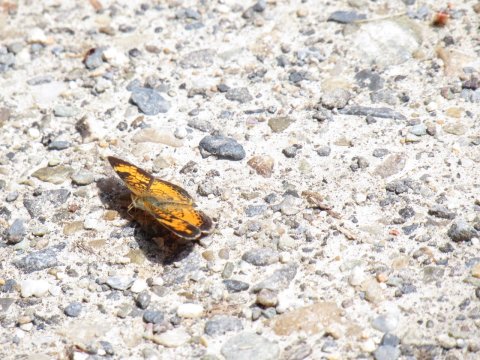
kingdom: Animalia
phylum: Arthropoda
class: Insecta
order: Lepidoptera
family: Nymphalidae
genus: Phyciodes
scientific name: Phyciodes
